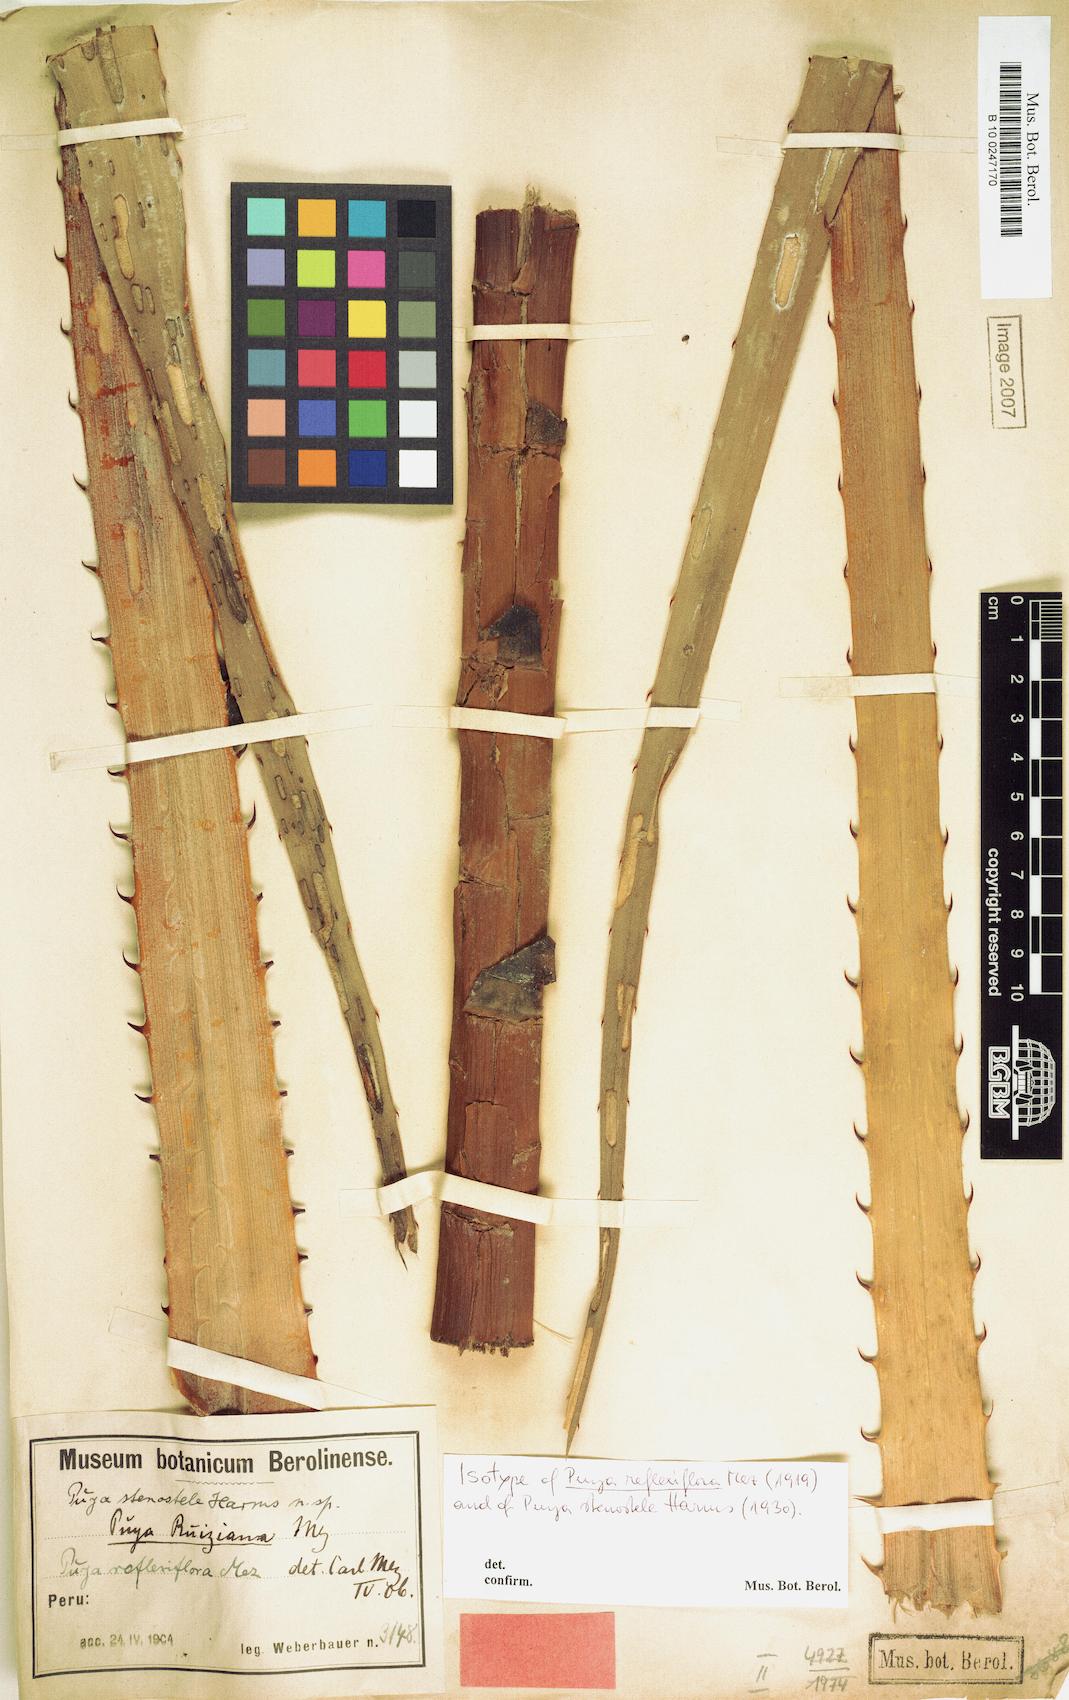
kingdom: Plantae
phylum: Tracheophyta
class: Liliopsida
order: Poales
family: Bromeliaceae
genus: Puya
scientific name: Puya reflexiflora
